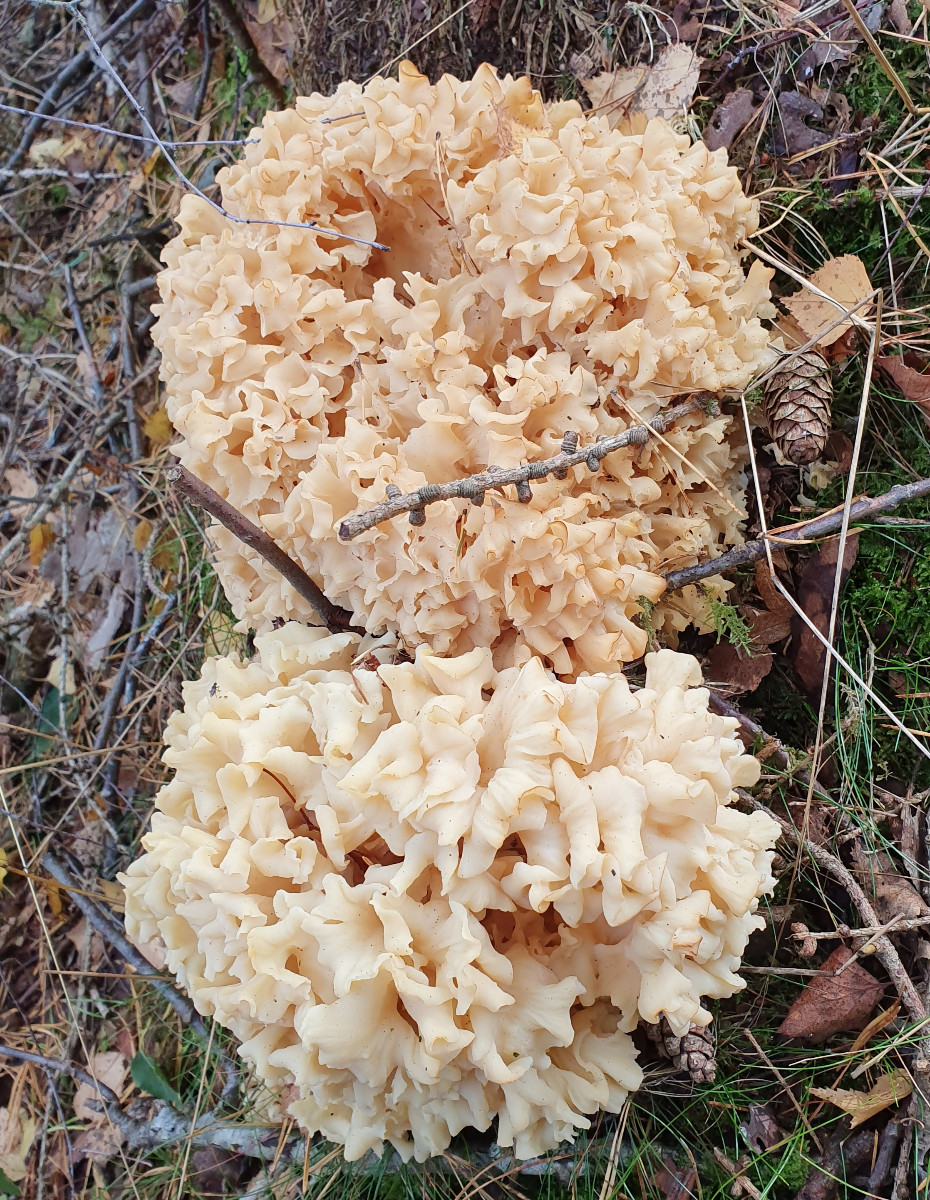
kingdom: Fungi
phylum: Basidiomycota
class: Agaricomycetes
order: Polyporales
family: Sparassidaceae
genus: Sparassis
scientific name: Sparassis crispa
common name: kruset blomkålssvamp
